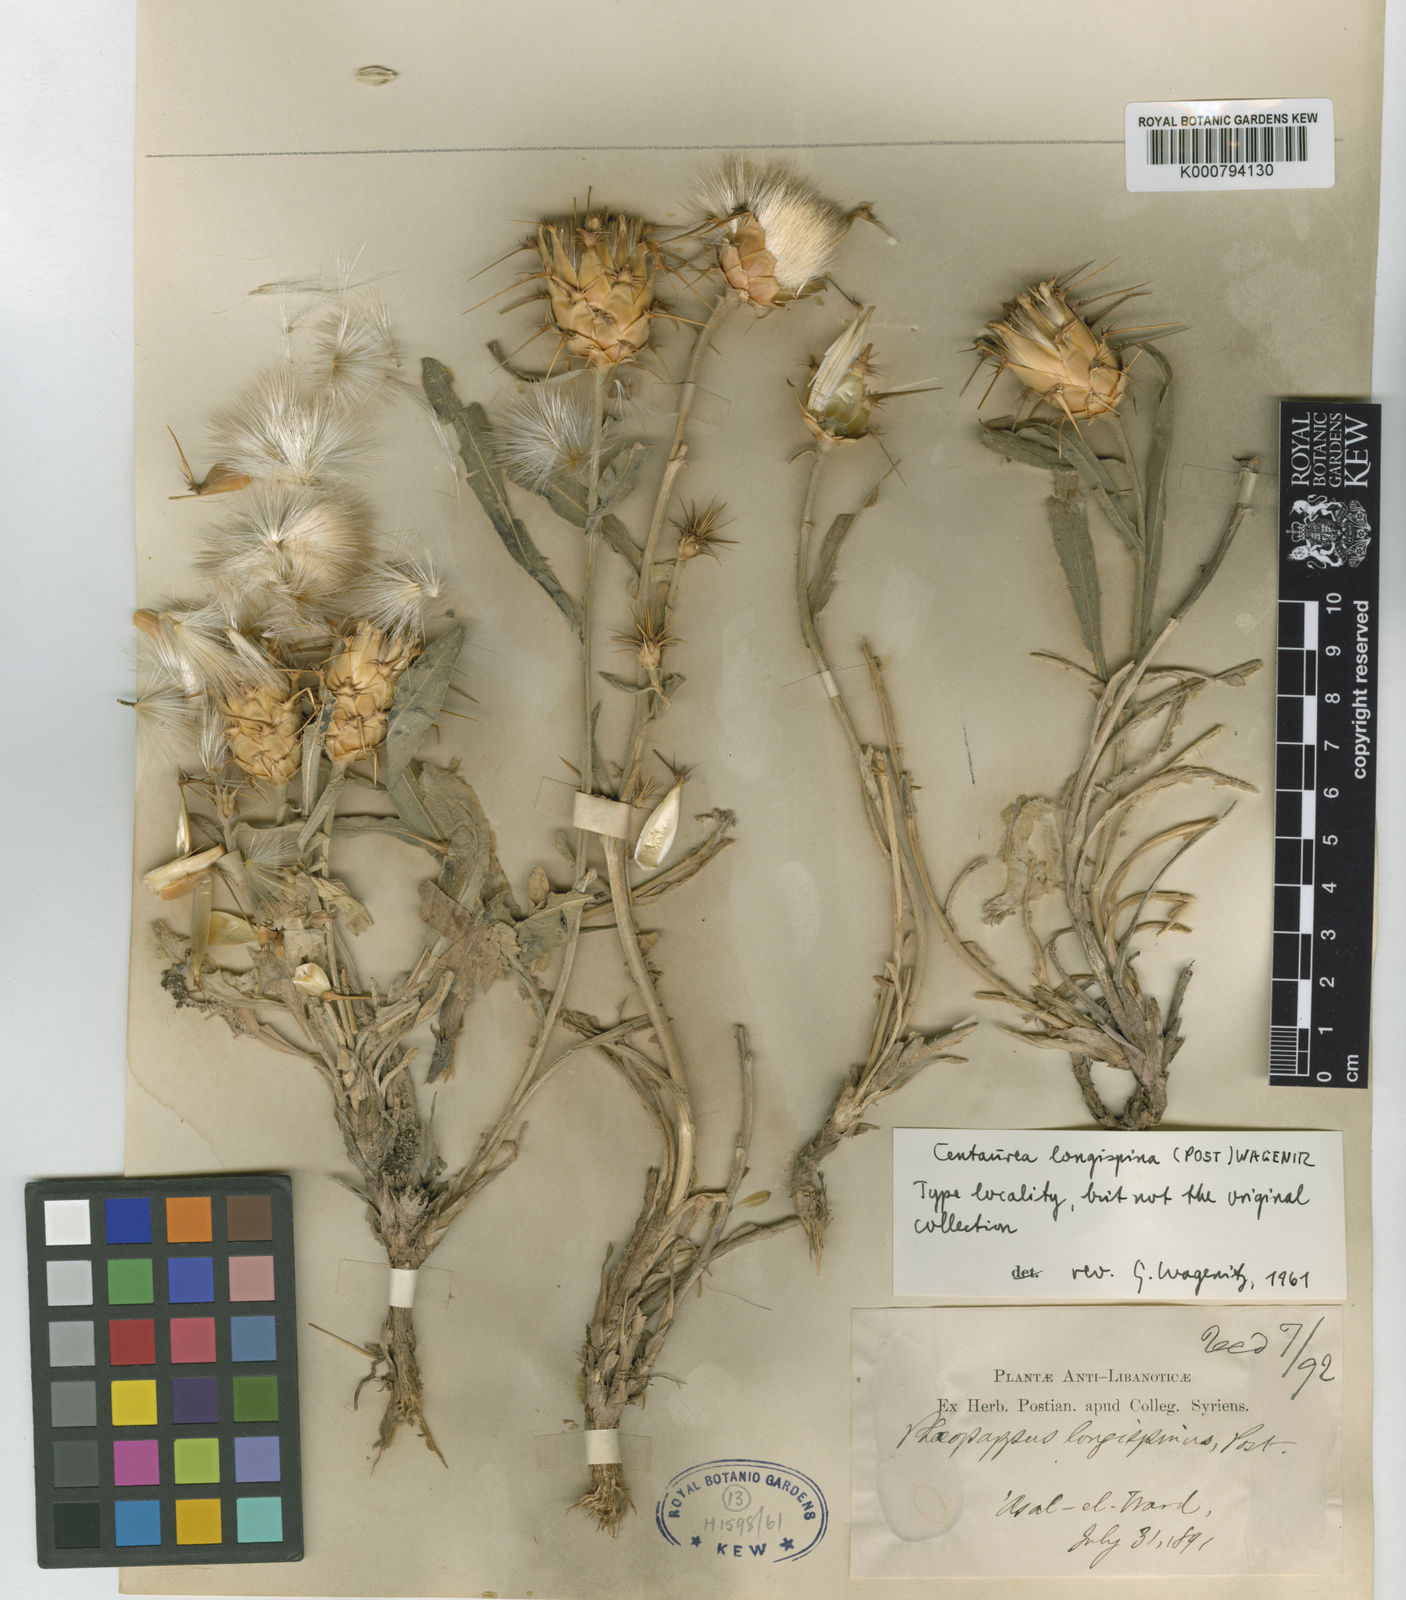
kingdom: Plantae
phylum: Tracheophyta
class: Magnoliopsida
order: Asterales
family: Asteraceae
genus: Centaurea
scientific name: Centaurea longispina
